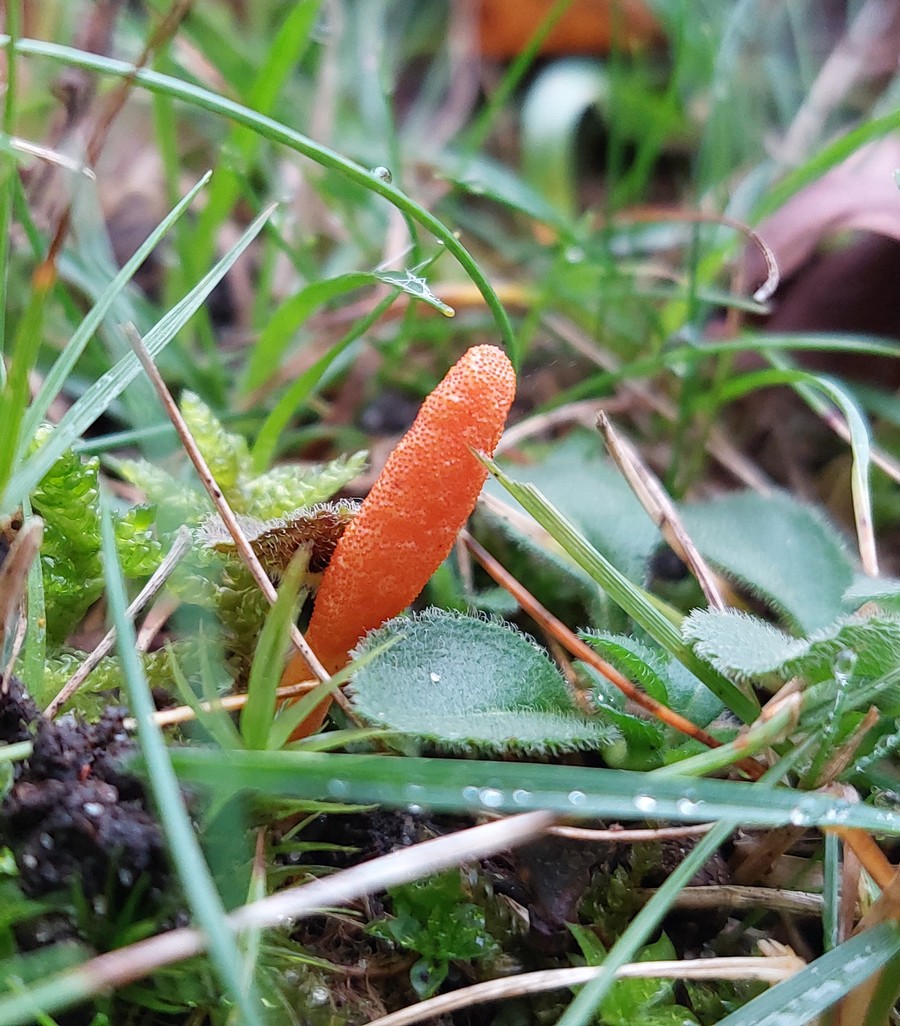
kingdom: Fungi
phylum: Ascomycota
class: Sordariomycetes
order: Hypocreales
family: Cordycipitaceae
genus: Cordyceps
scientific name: Cordyceps militaris
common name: puppe-snyltekølle
